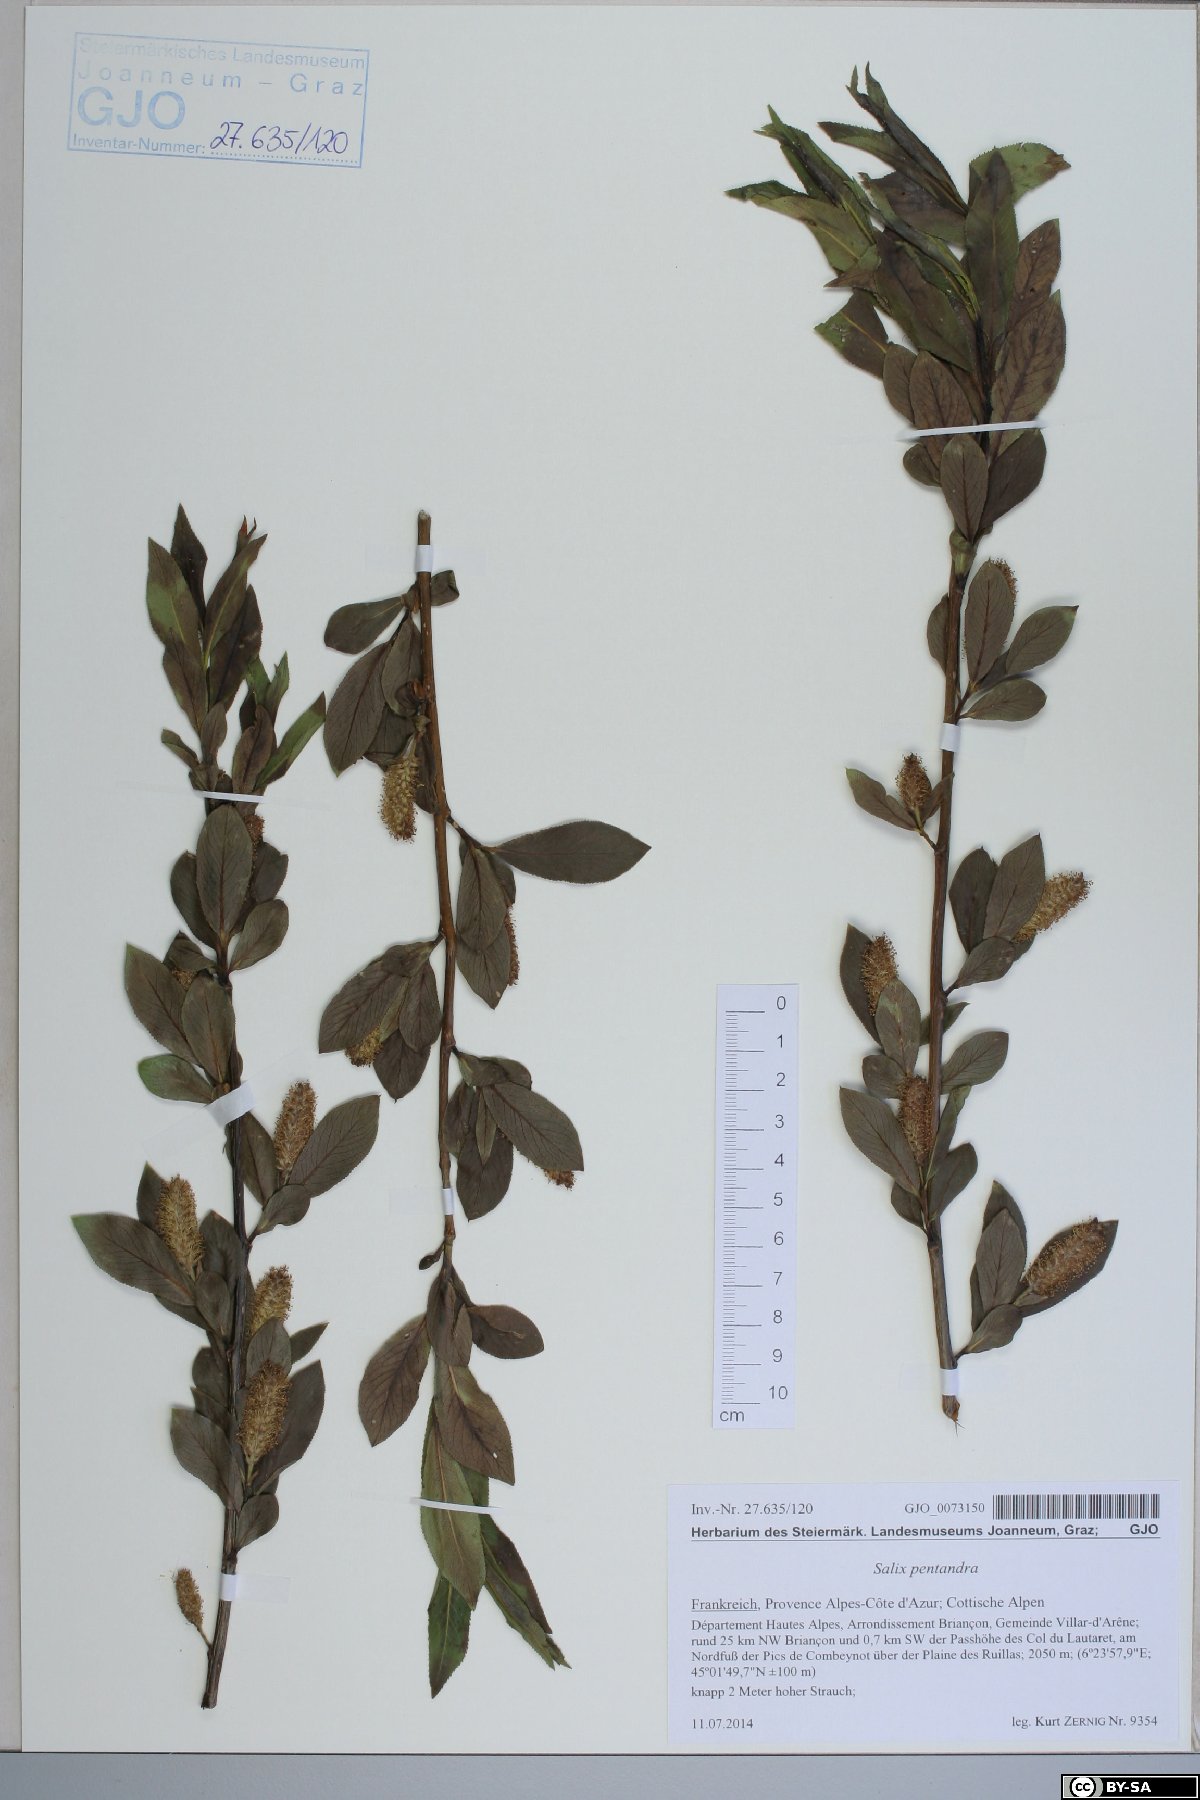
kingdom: Plantae
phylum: Tracheophyta
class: Magnoliopsida
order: Malpighiales
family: Salicaceae
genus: Salix
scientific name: Salix pentandra
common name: Bay willow
